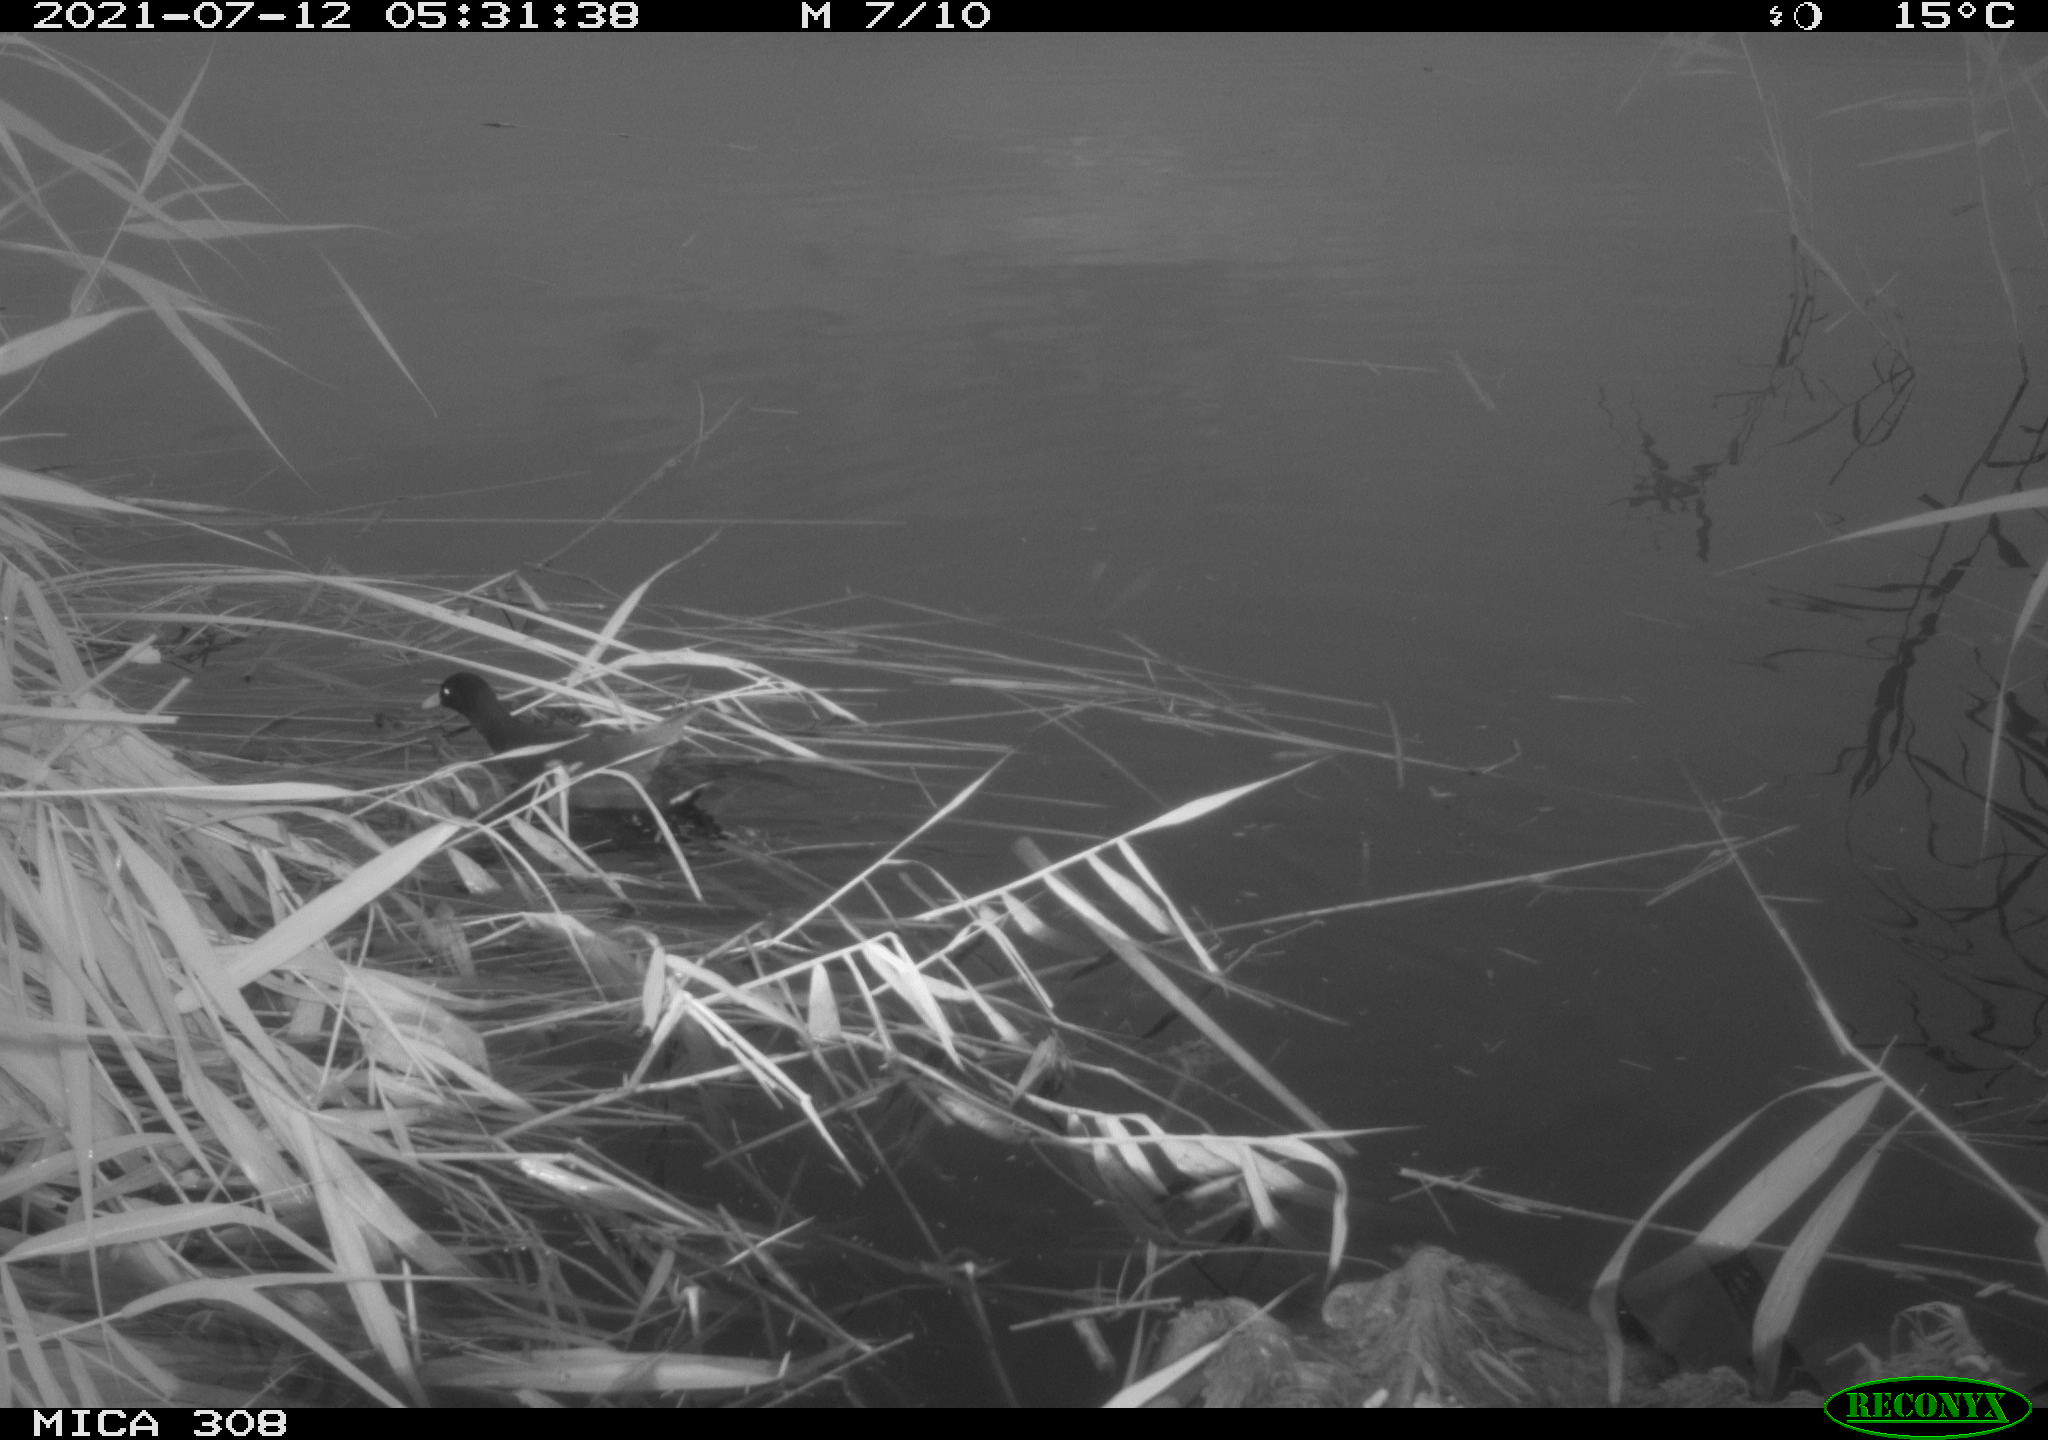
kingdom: Animalia
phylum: Chordata
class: Aves
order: Gruiformes
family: Rallidae
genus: Gallinula
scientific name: Gallinula chloropus
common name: Common moorhen
